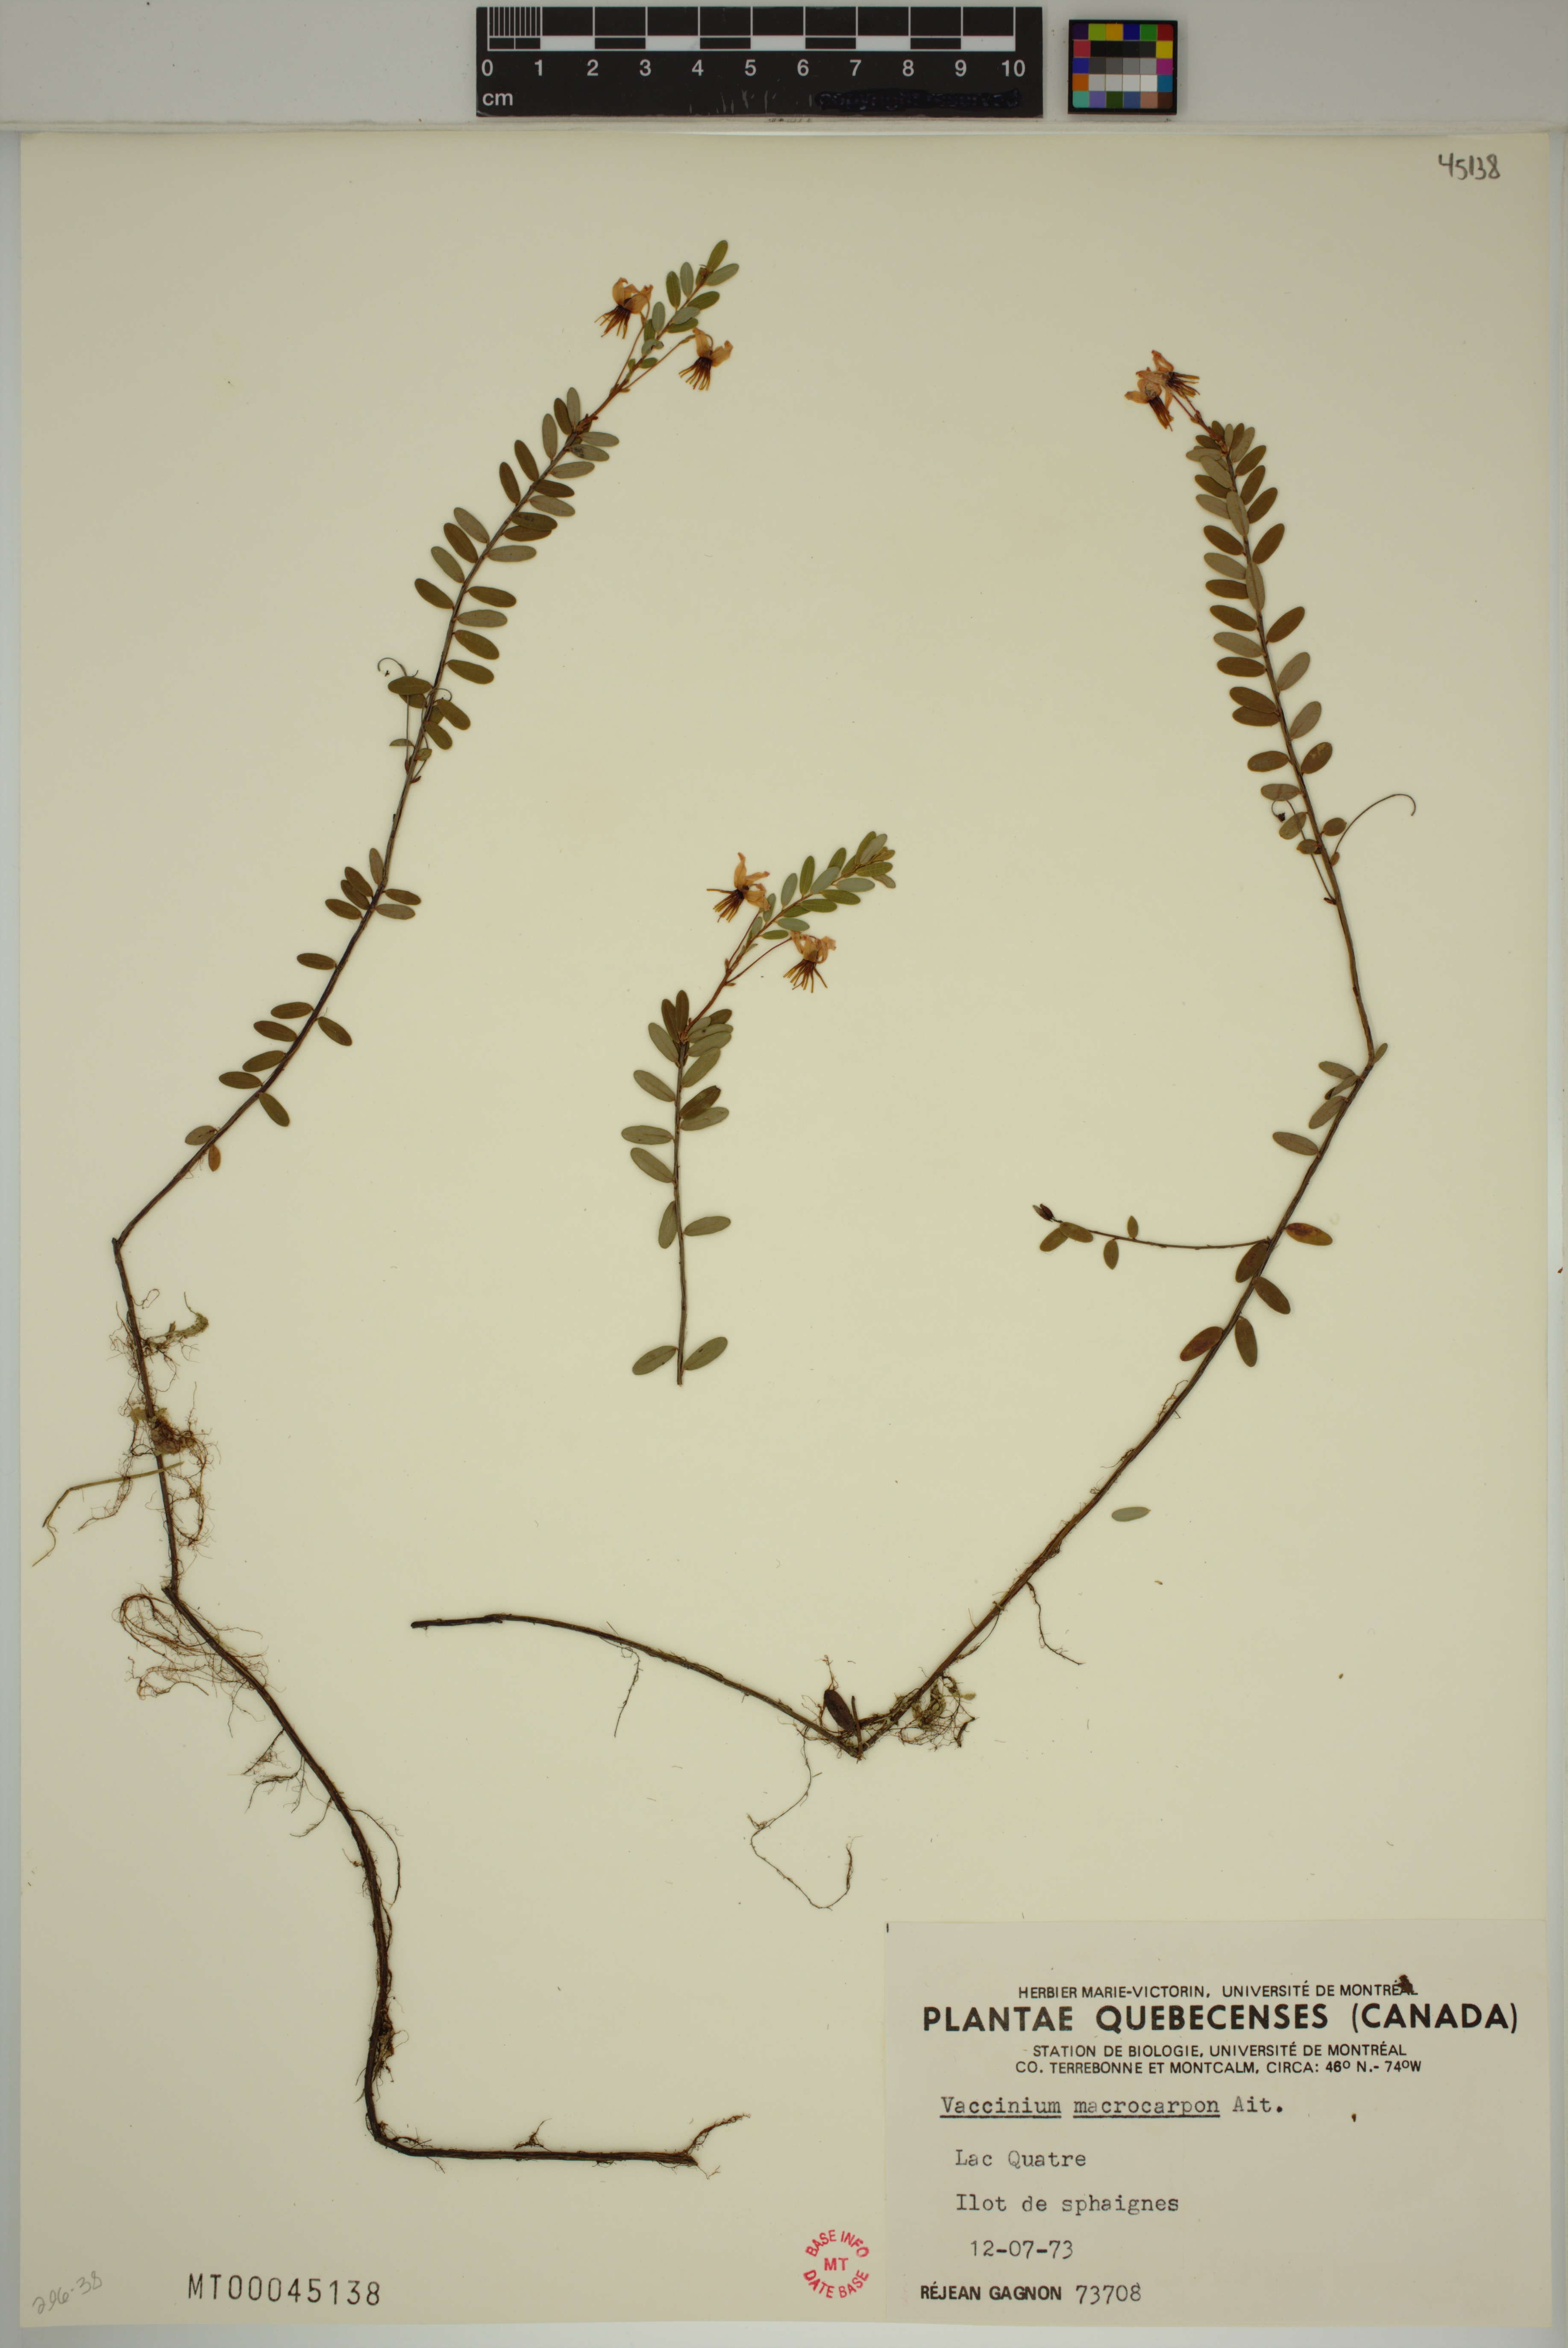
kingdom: Plantae
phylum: Tracheophyta
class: Magnoliopsida
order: Ericales
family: Ericaceae
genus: Vaccinium
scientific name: Vaccinium macrocarpon
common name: American cranberry
